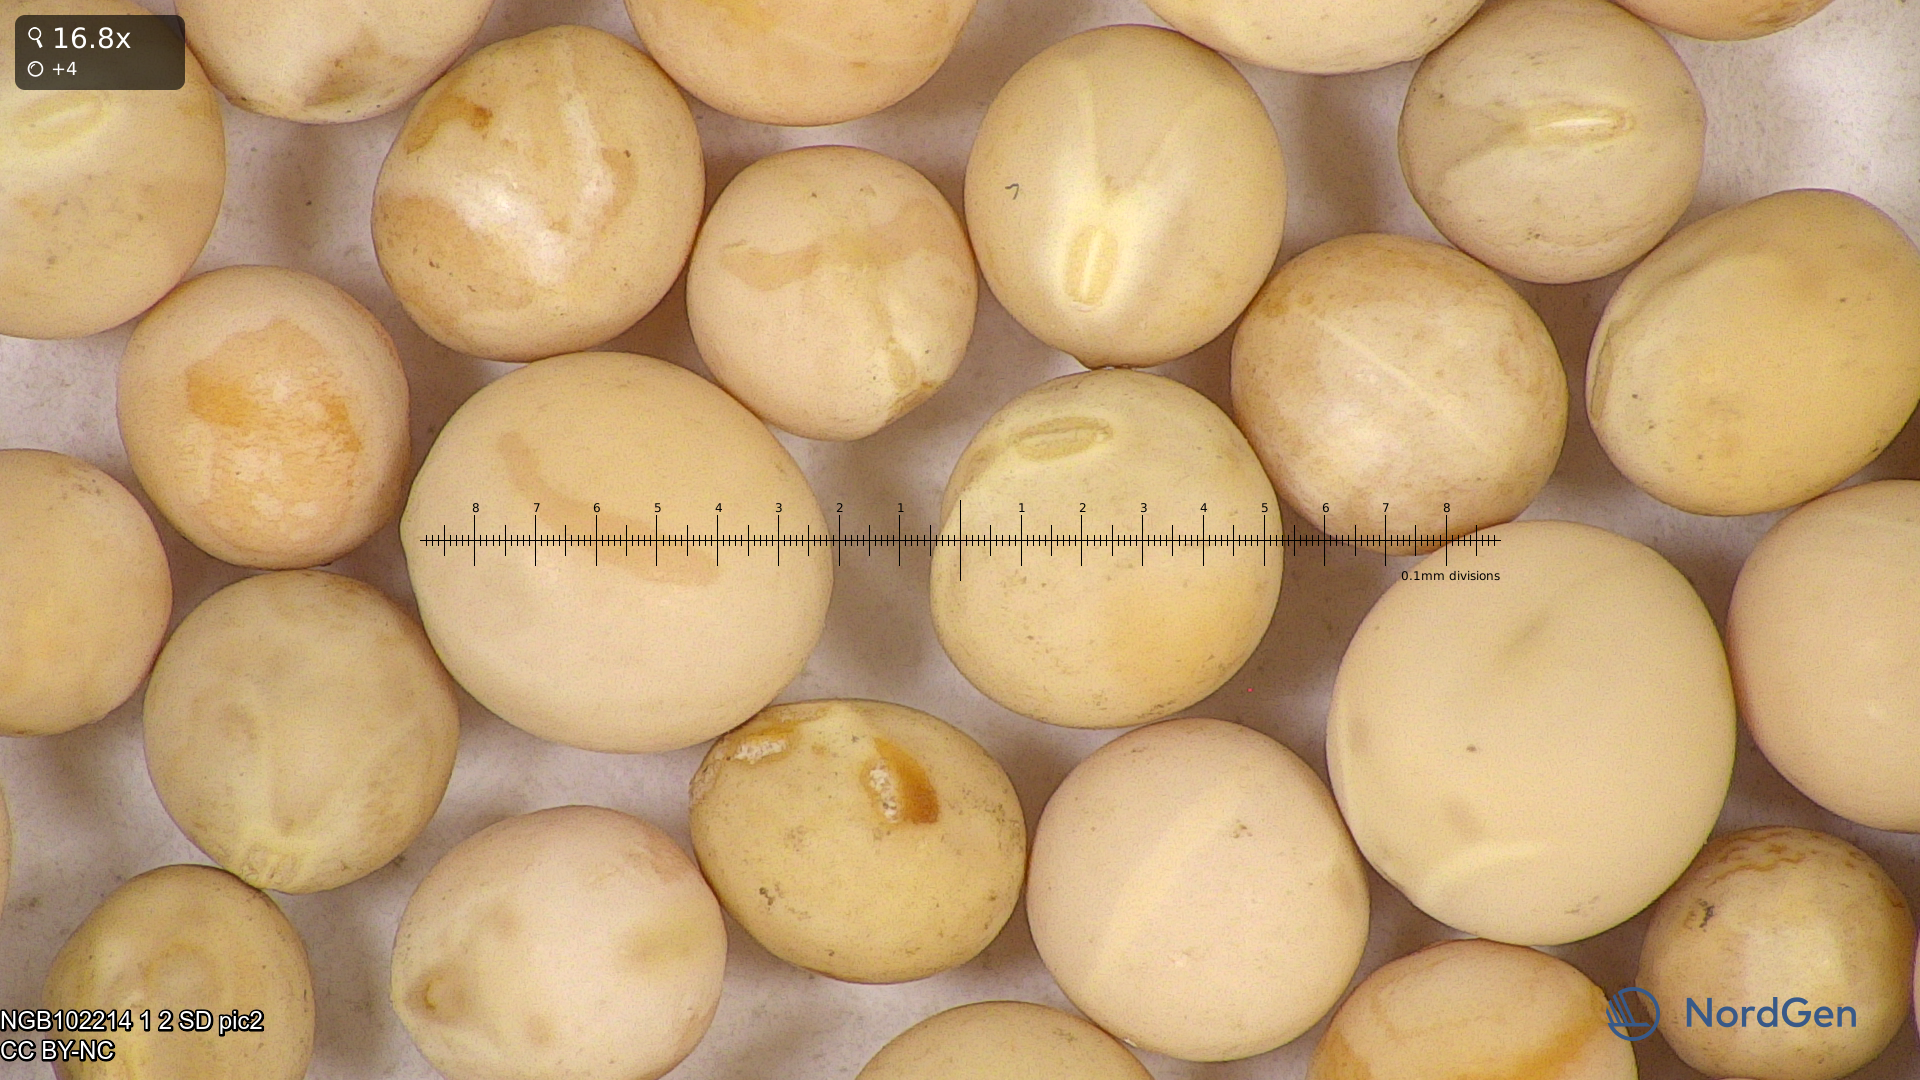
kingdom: Plantae
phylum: Tracheophyta
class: Magnoliopsida
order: Fabales
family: Fabaceae
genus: Lathyrus
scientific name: Lathyrus oleraceus
